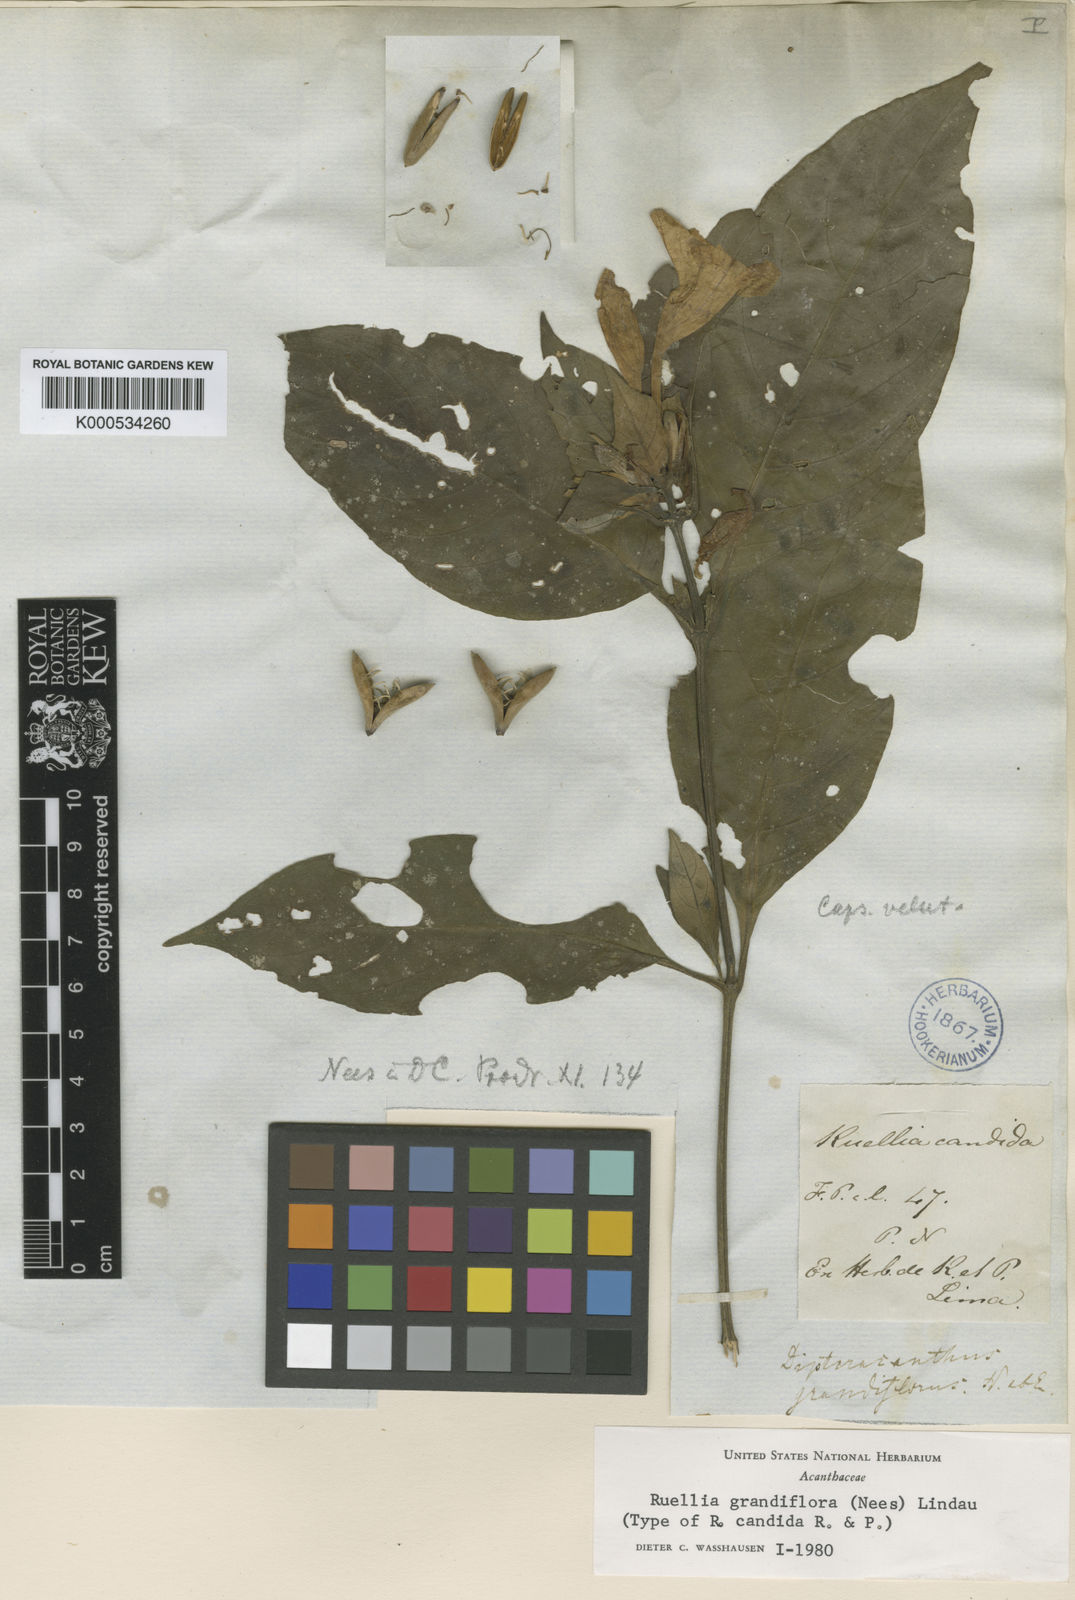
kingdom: Plantae
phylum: Tracheophyta
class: Magnoliopsida
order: Lamiales
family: Acanthaceae
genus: Ruellia
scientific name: Ruellia yurimaguensis
